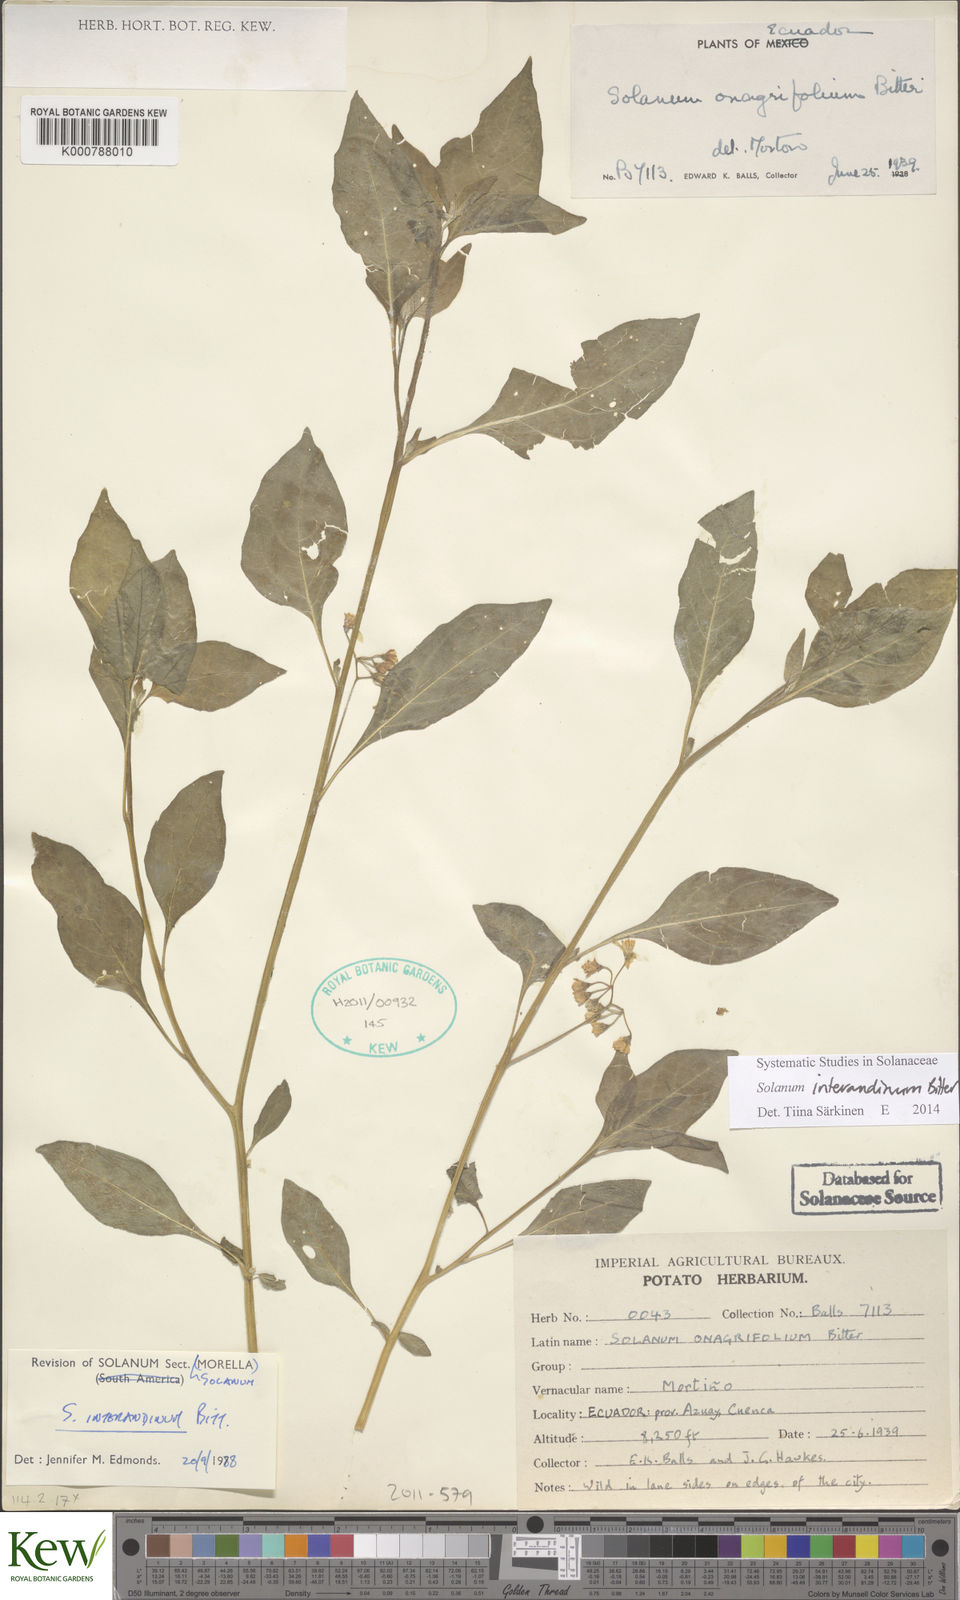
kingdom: Plantae
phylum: Tracheophyta
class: Magnoliopsida
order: Solanales
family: Solanaceae
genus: Solanum
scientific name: Solanum
